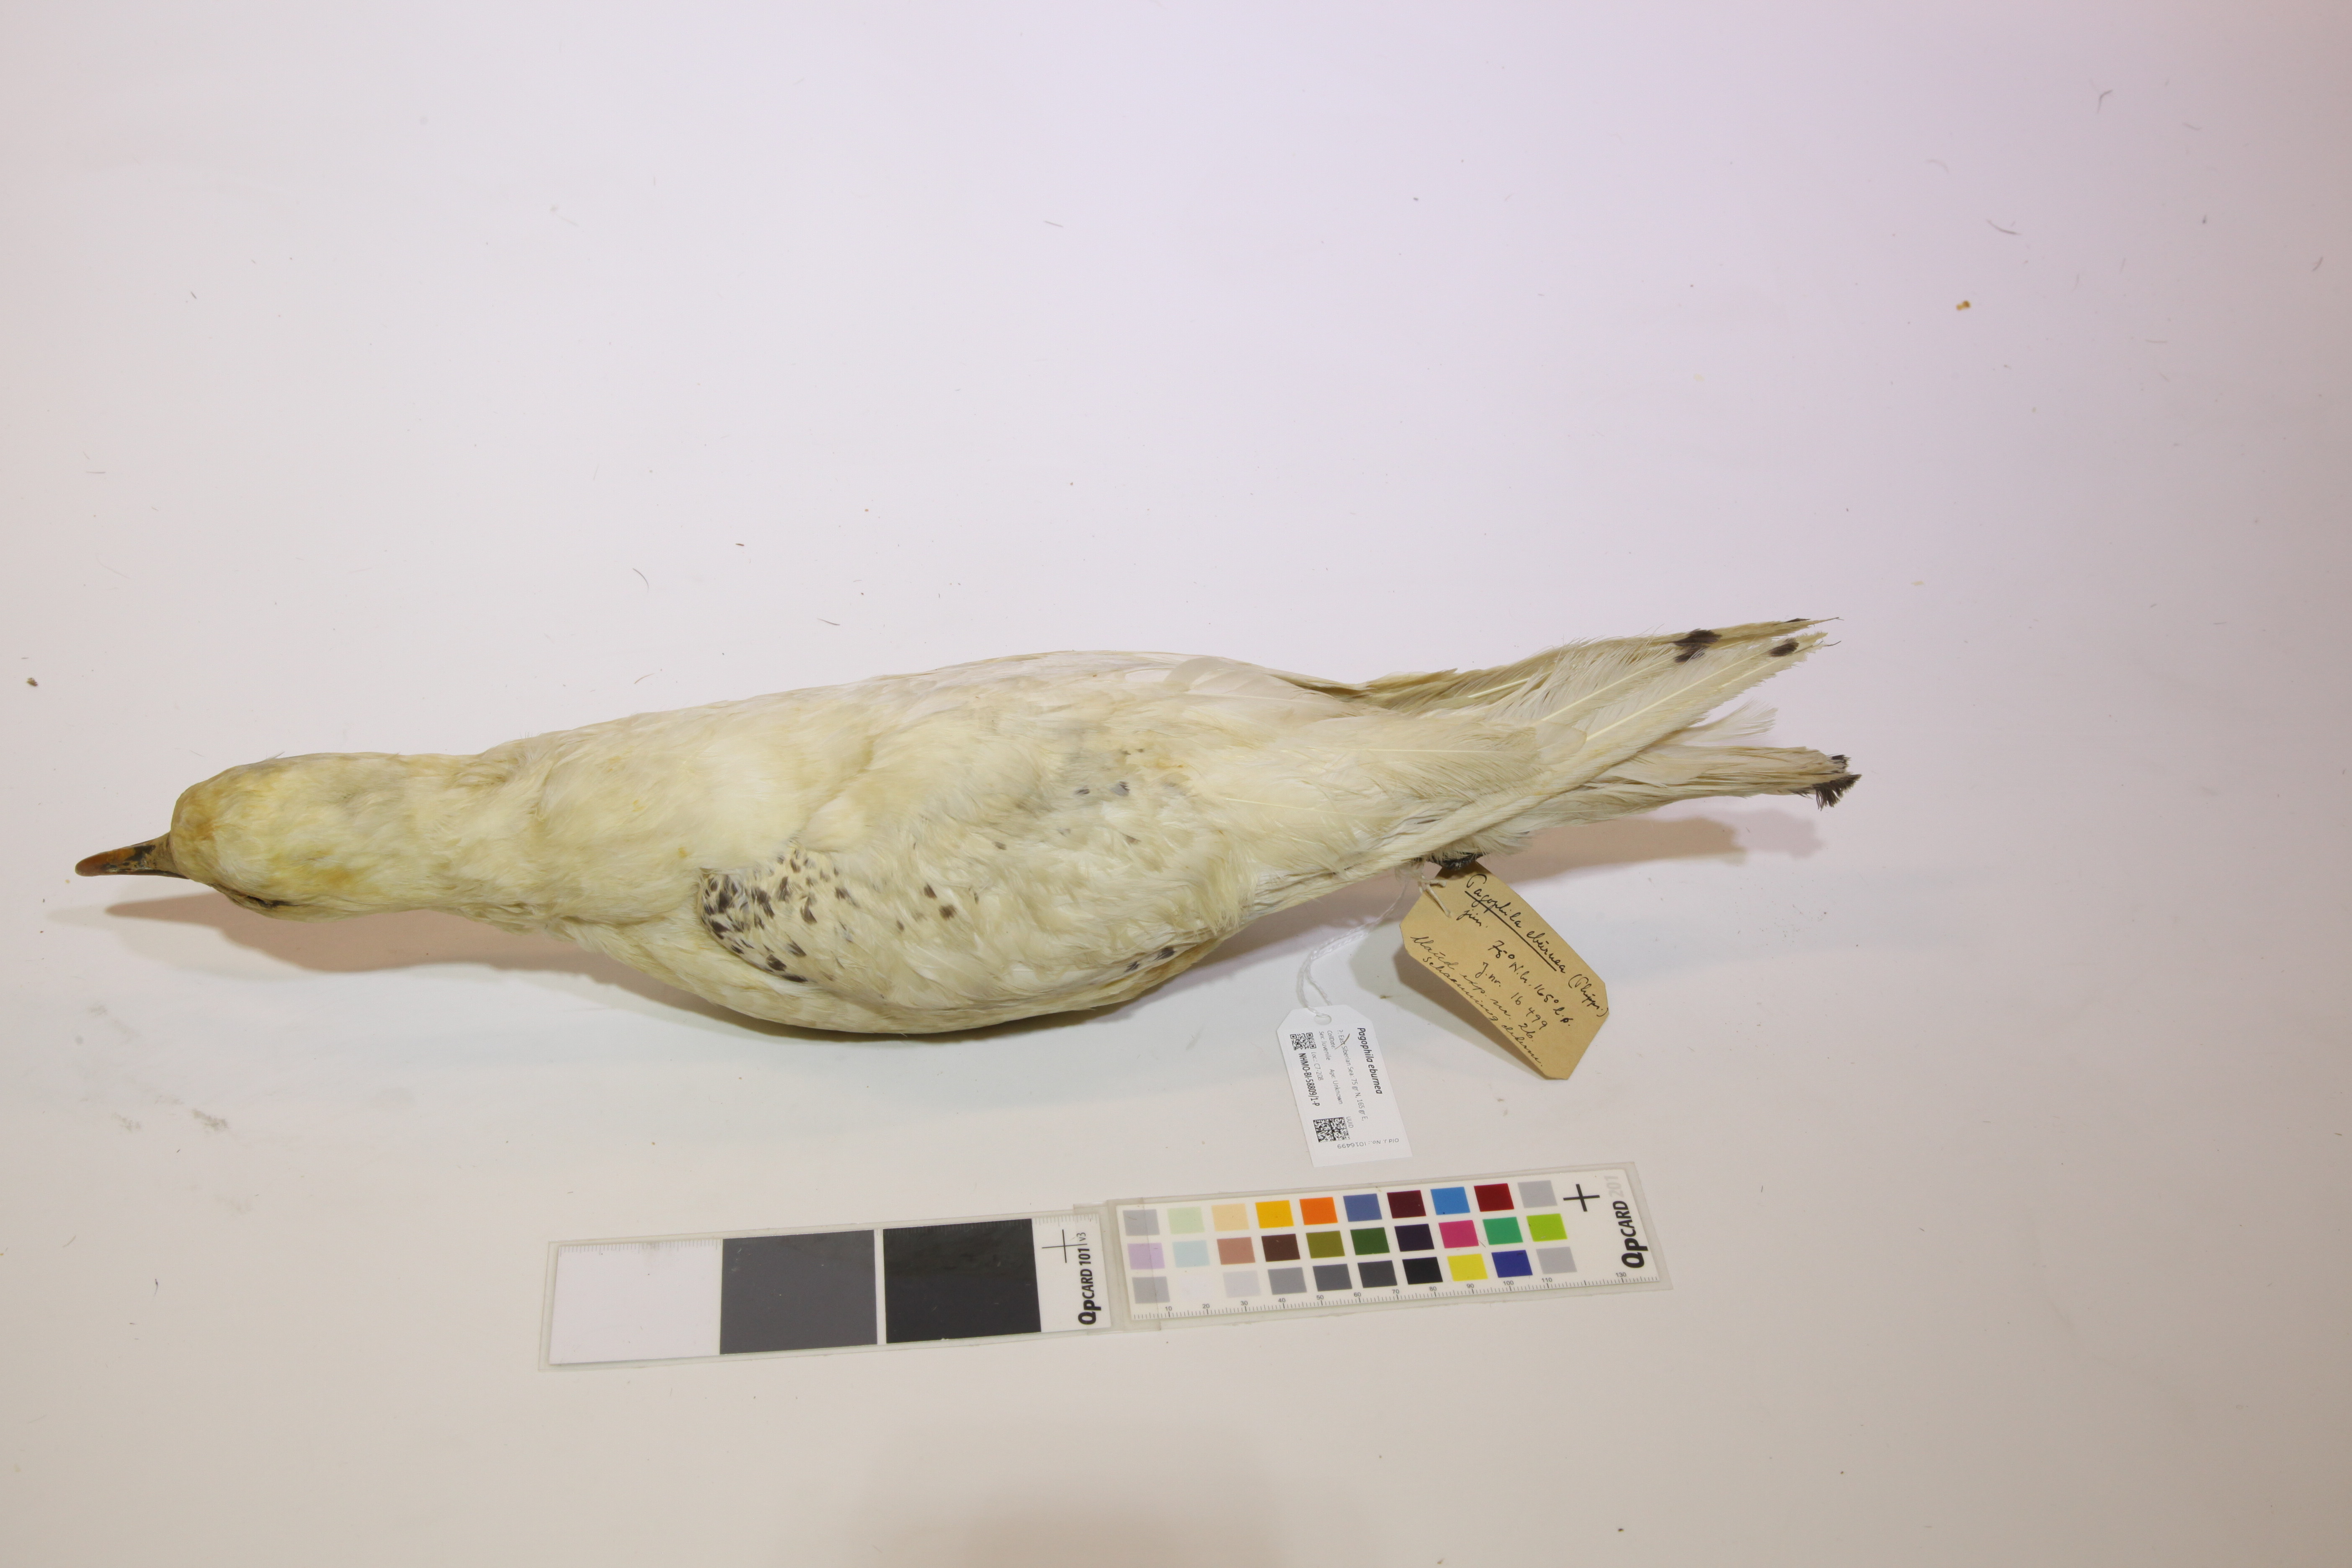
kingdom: Animalia
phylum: Chordata
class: Aves
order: Charadriiformes
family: Laridae
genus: Pagophila
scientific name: Pagophila eburnea
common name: Ivory gull
